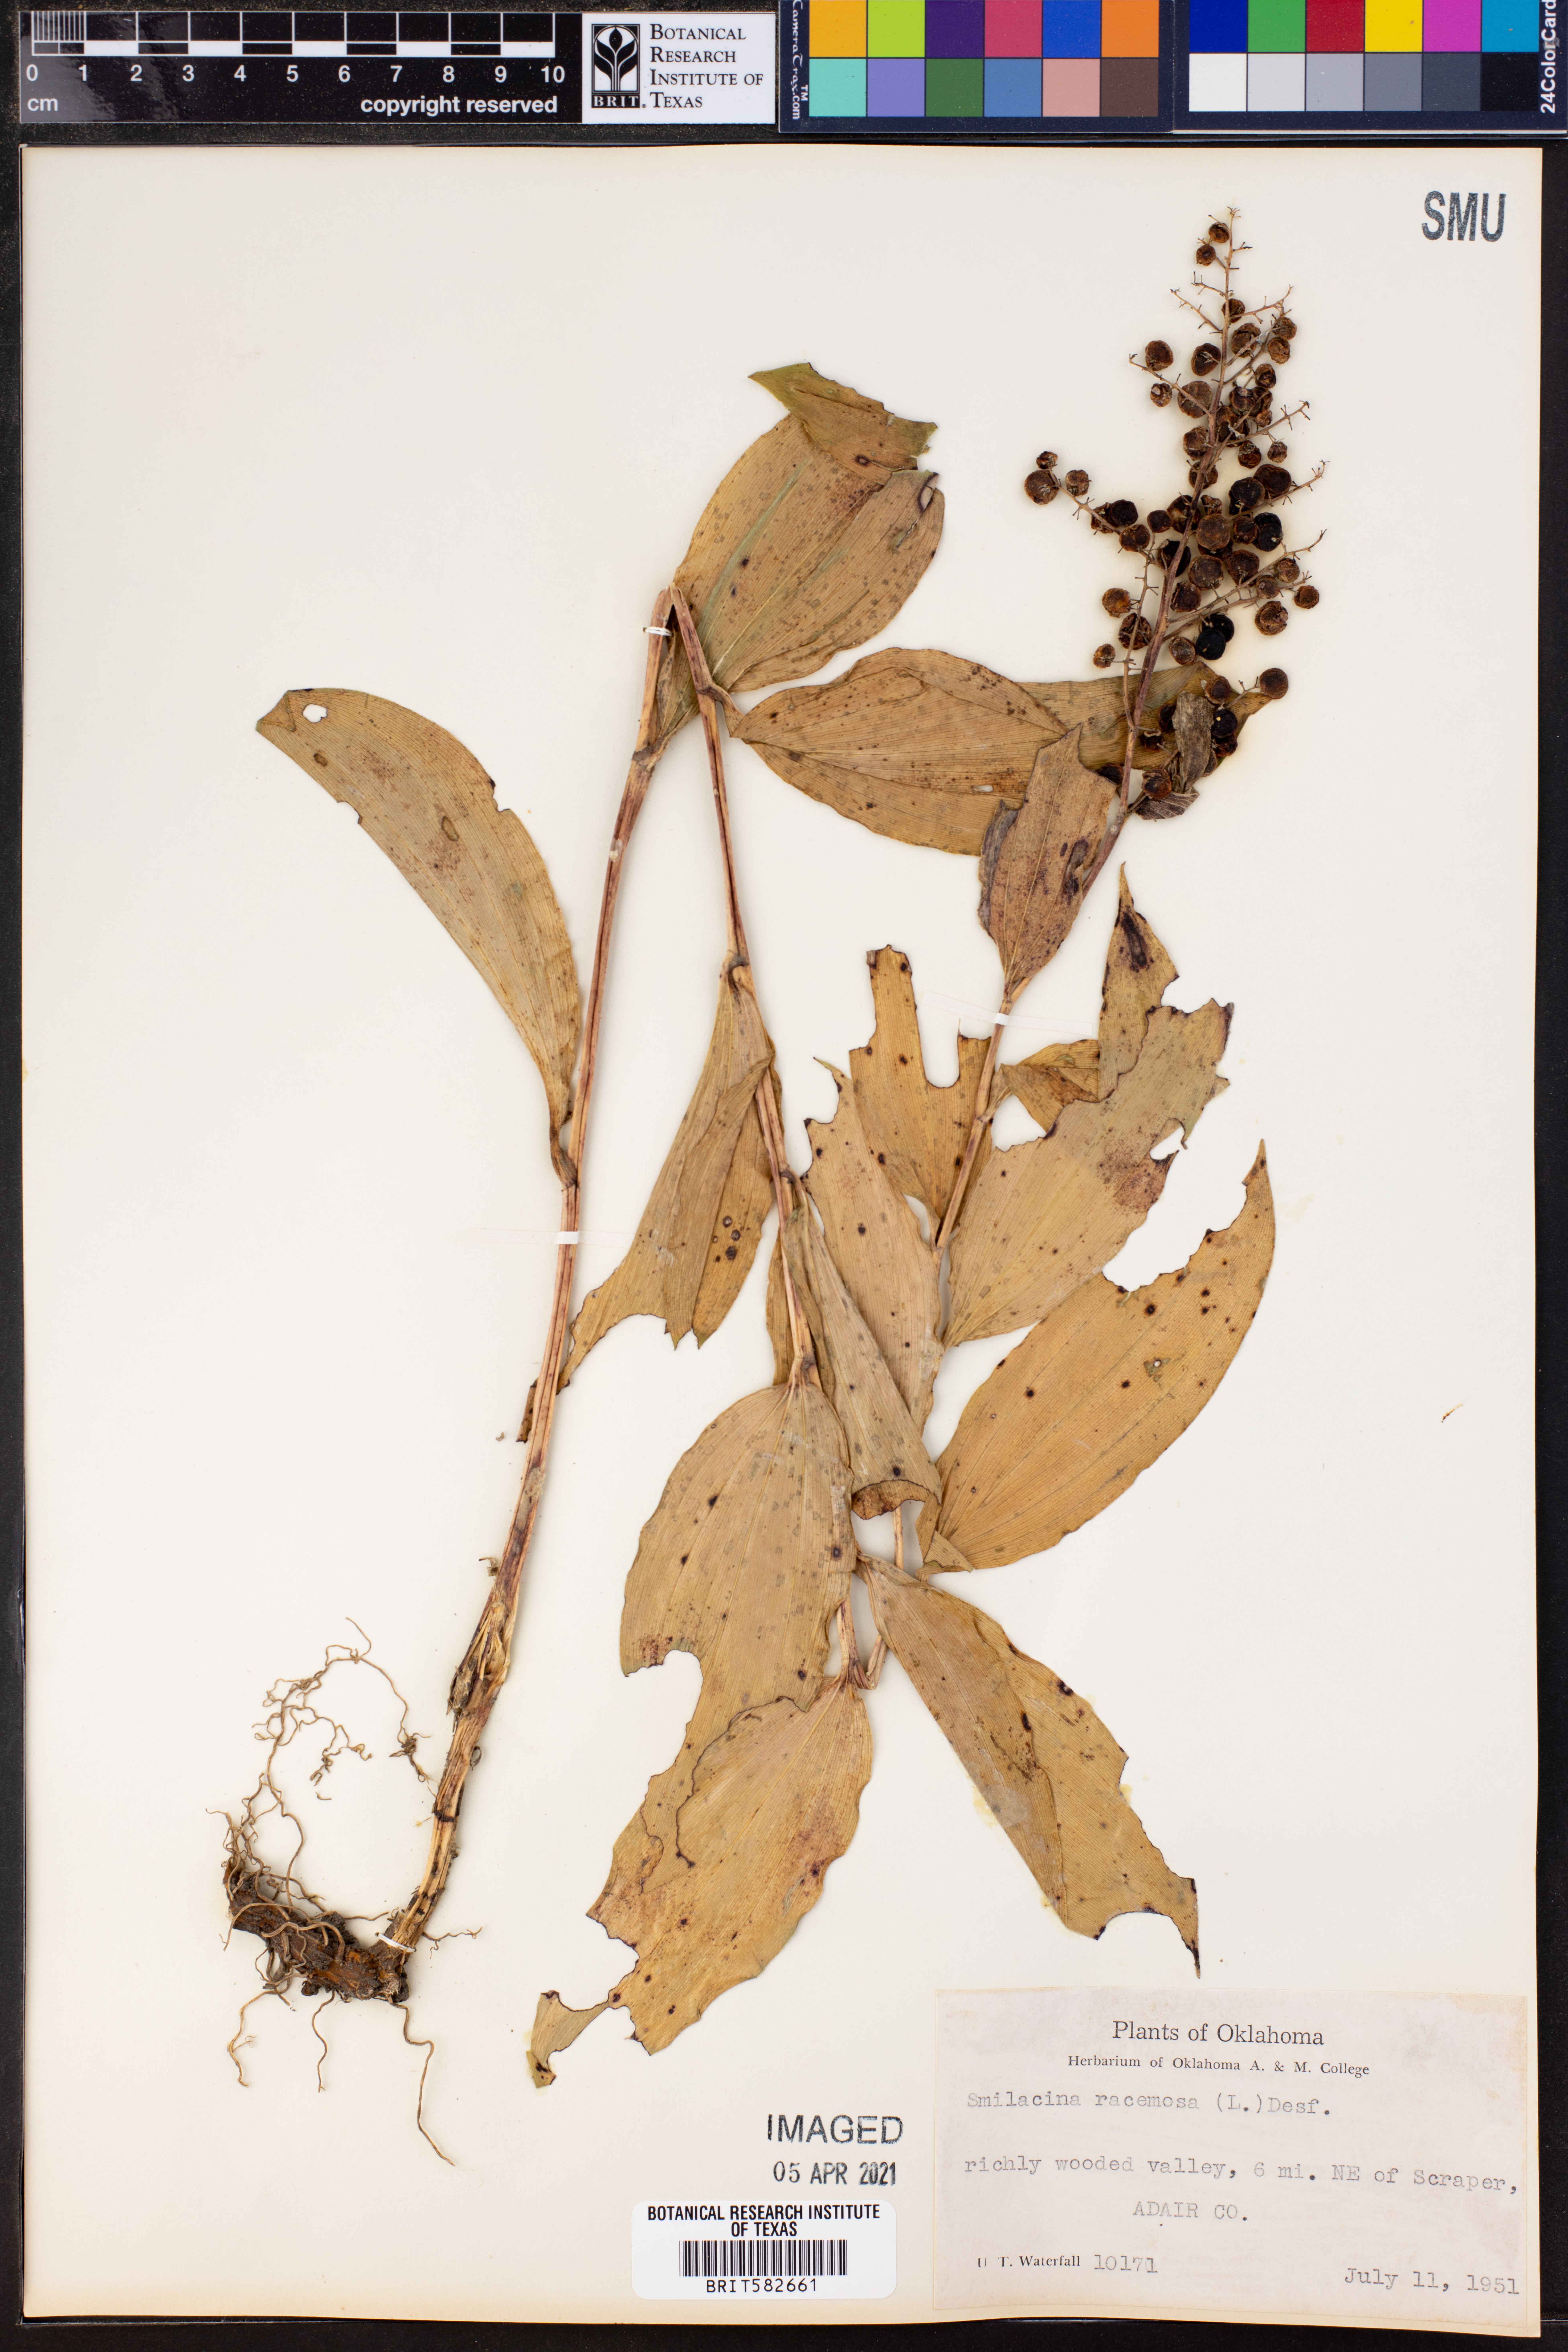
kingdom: Plantae
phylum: Tracheophyta
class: Liliopsida
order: Asparagales
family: Asparagaceae
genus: Maianthemum
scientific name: Maianthemum racemosum
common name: False spikenard
